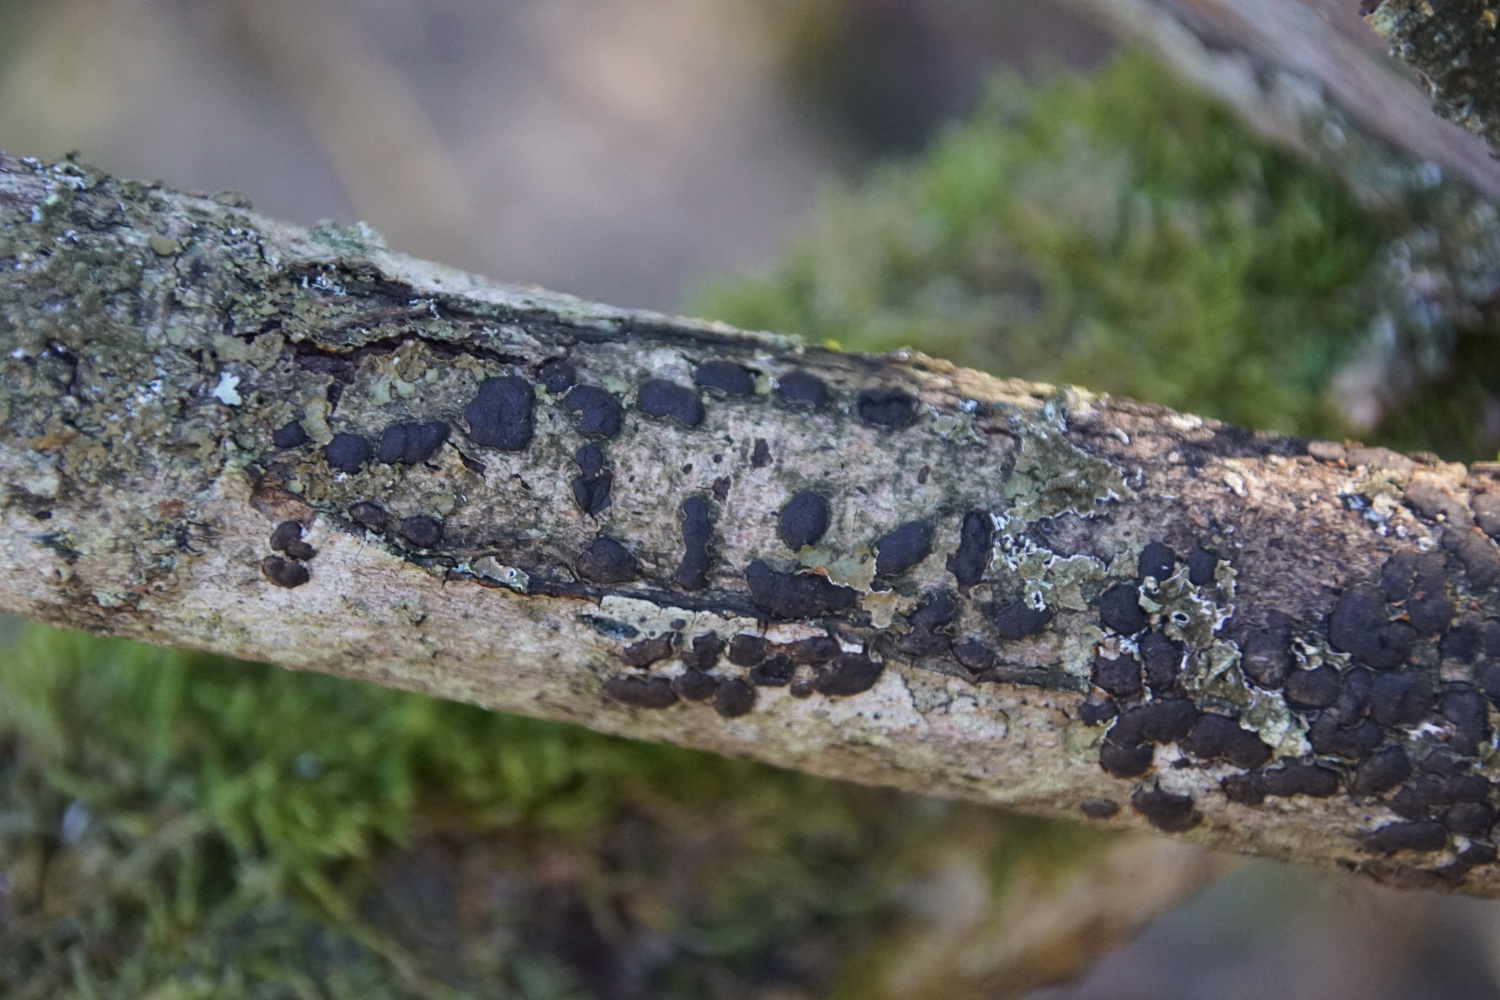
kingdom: Fungi
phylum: Ascomycota
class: Sordariomycetes
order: Xylariales
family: Diatrypaceae
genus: Diatrype
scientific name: Diatrype bullata
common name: pile-kulskorpe
